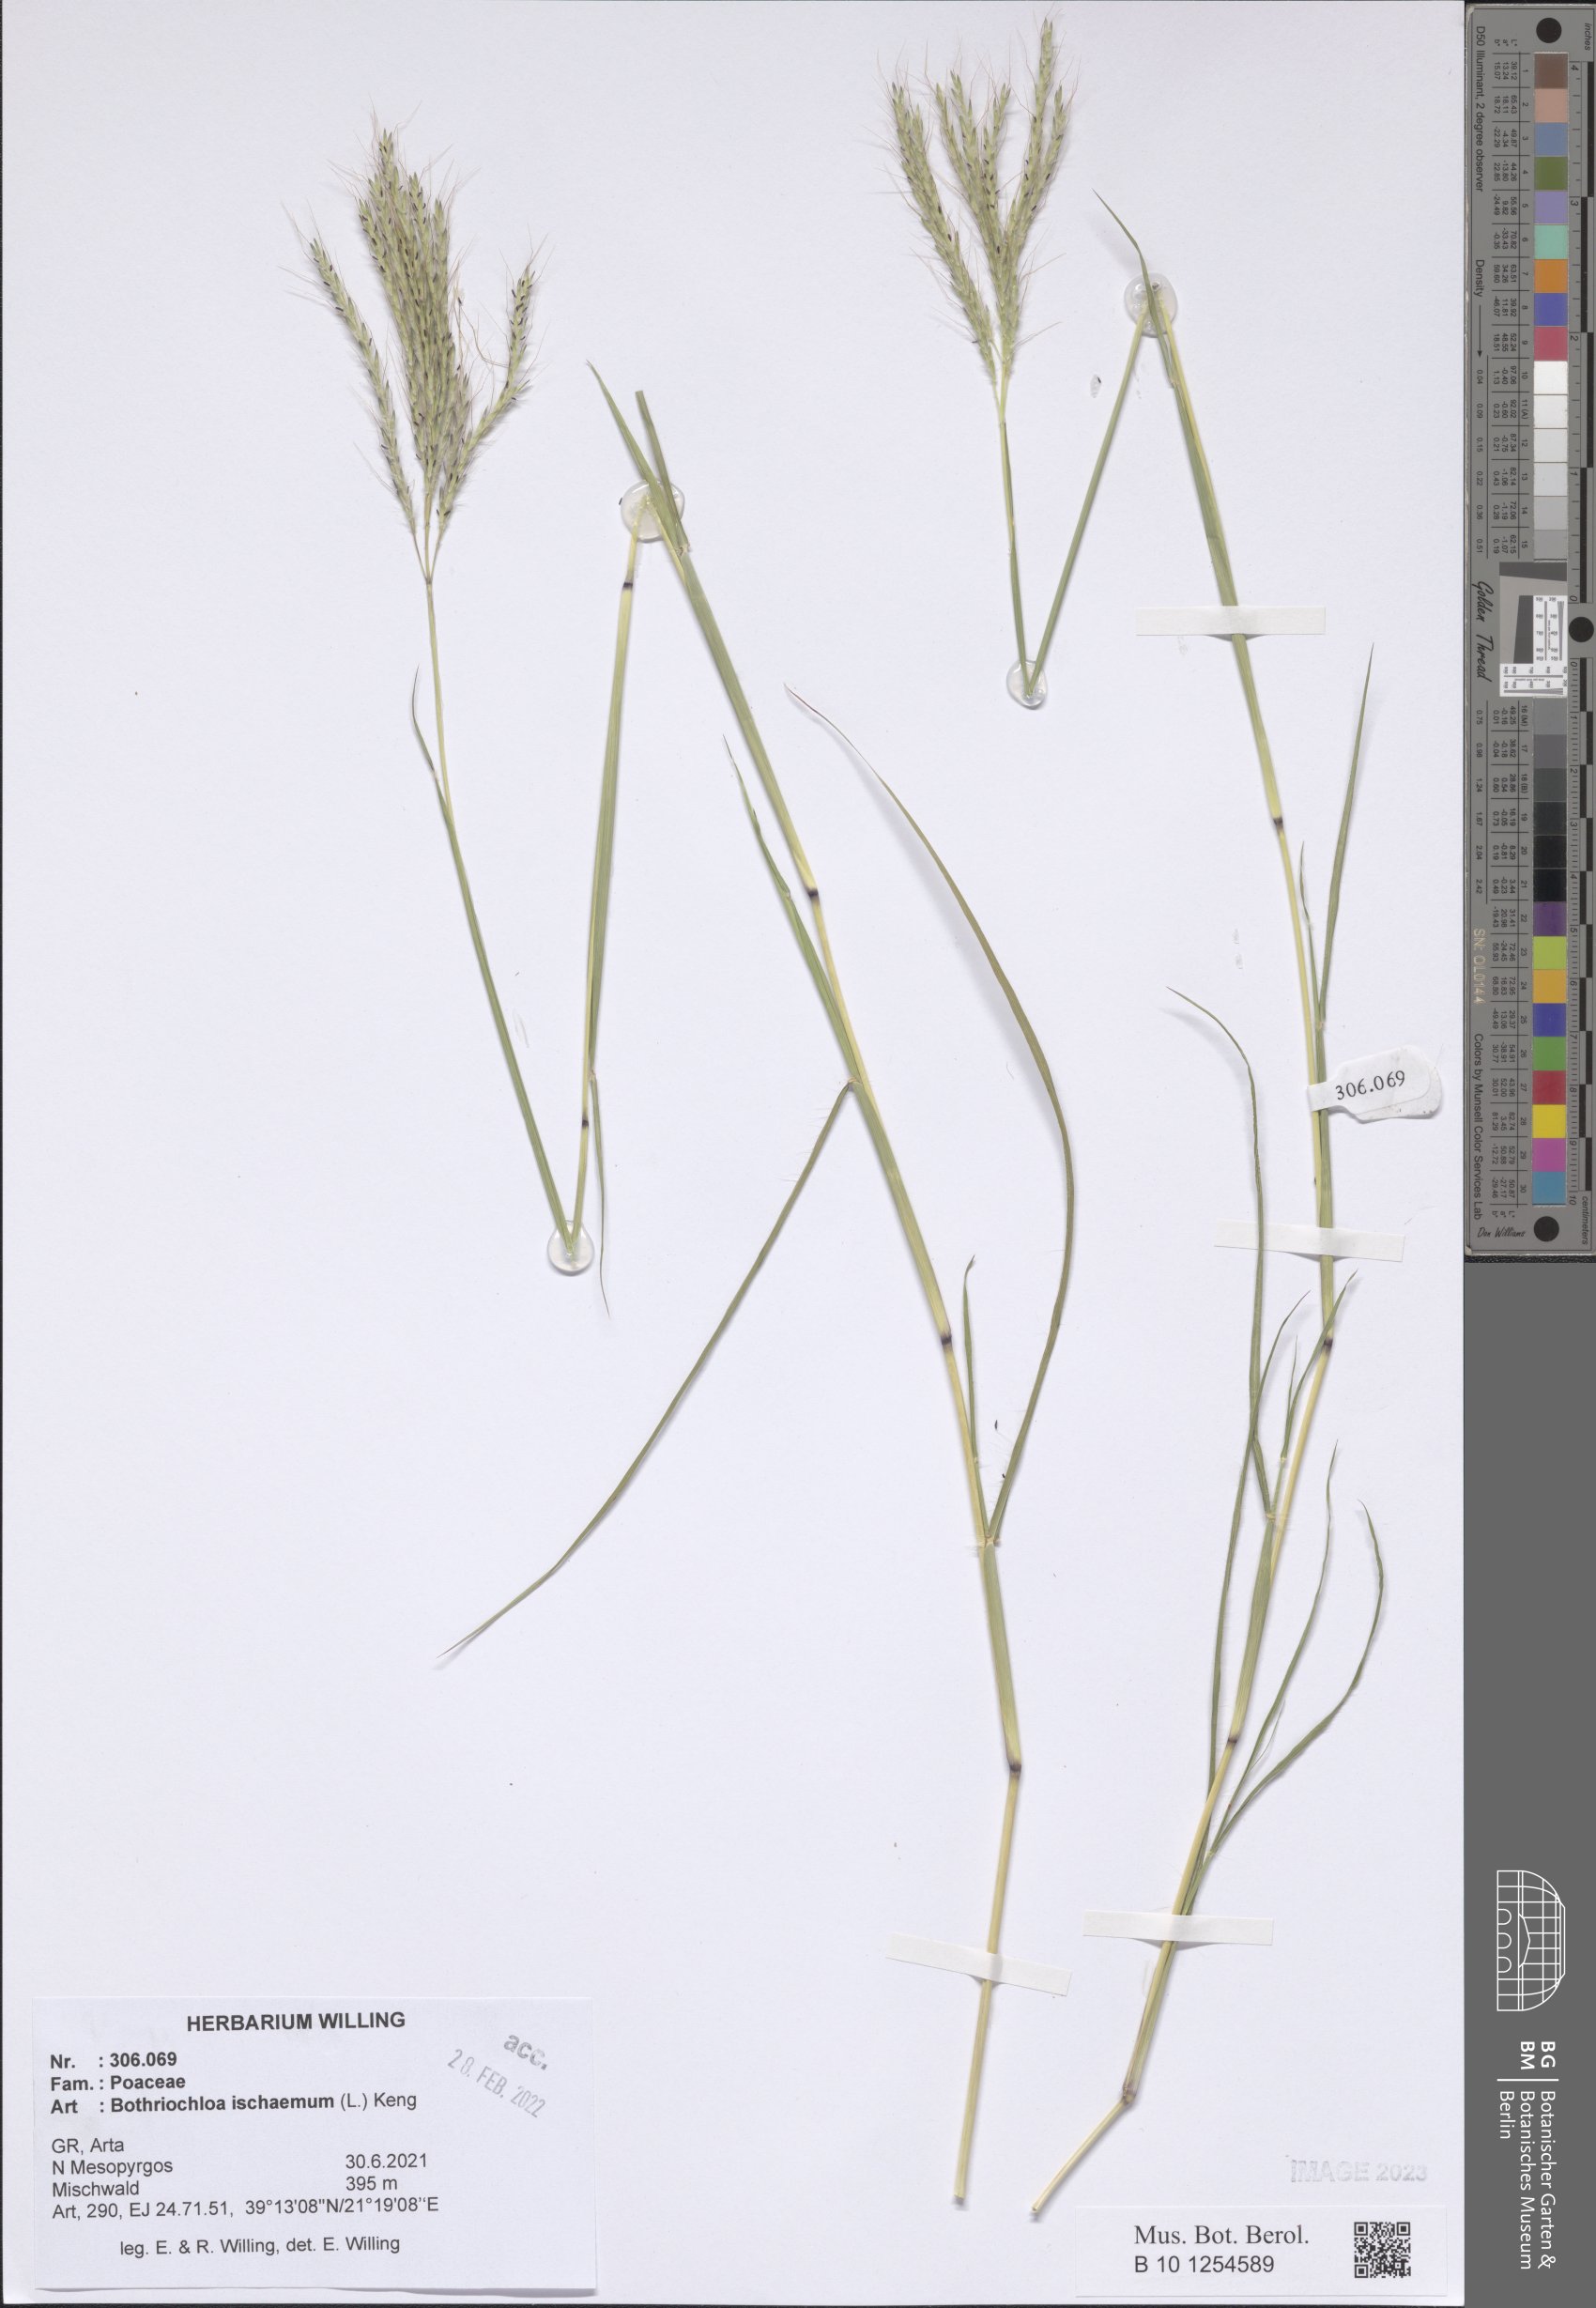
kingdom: Plantae
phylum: Tracheophyta
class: Liliopsida
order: Poales
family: Poaceae
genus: Bothriochloa
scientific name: Bothriochloa ischaemum
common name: Yellow bluestem
